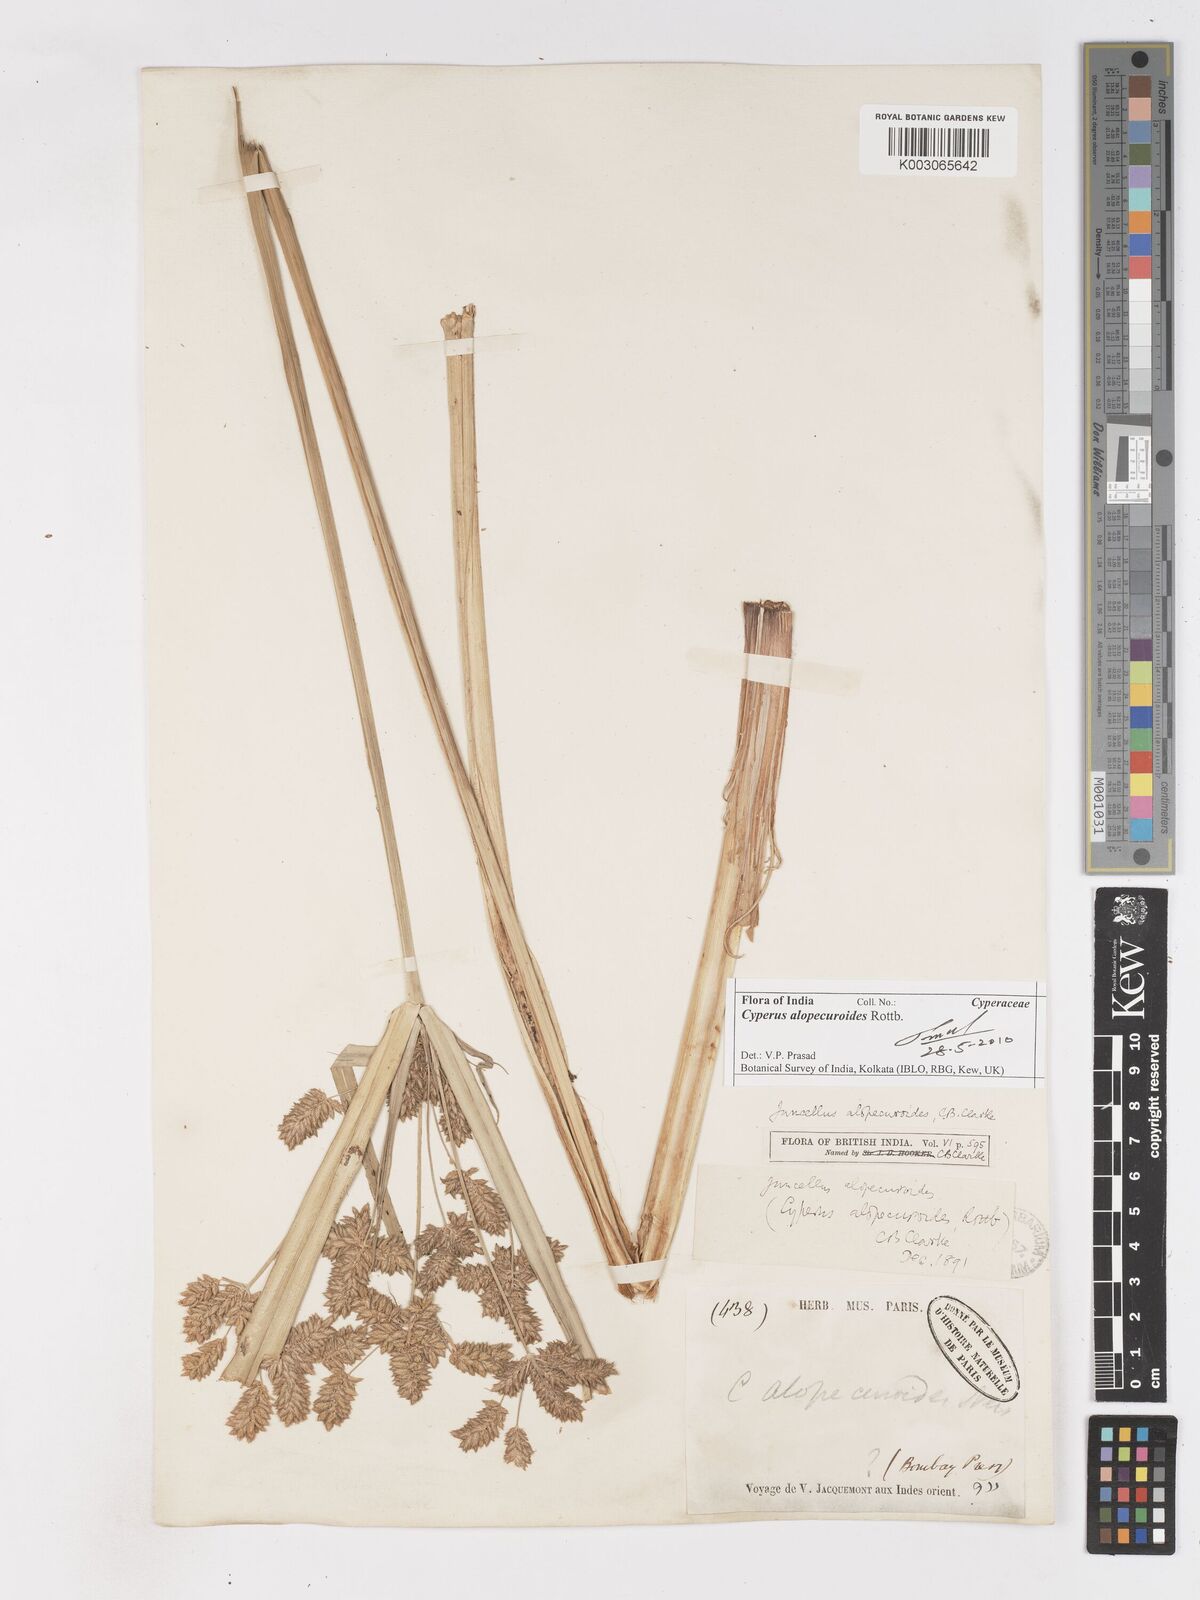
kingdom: Plantae
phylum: Tracheophyta
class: Liliopsida
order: Poales
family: Cyperaceae
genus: Cyperus
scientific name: Cyperus alopecuroides
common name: Foxtail flatsedge
